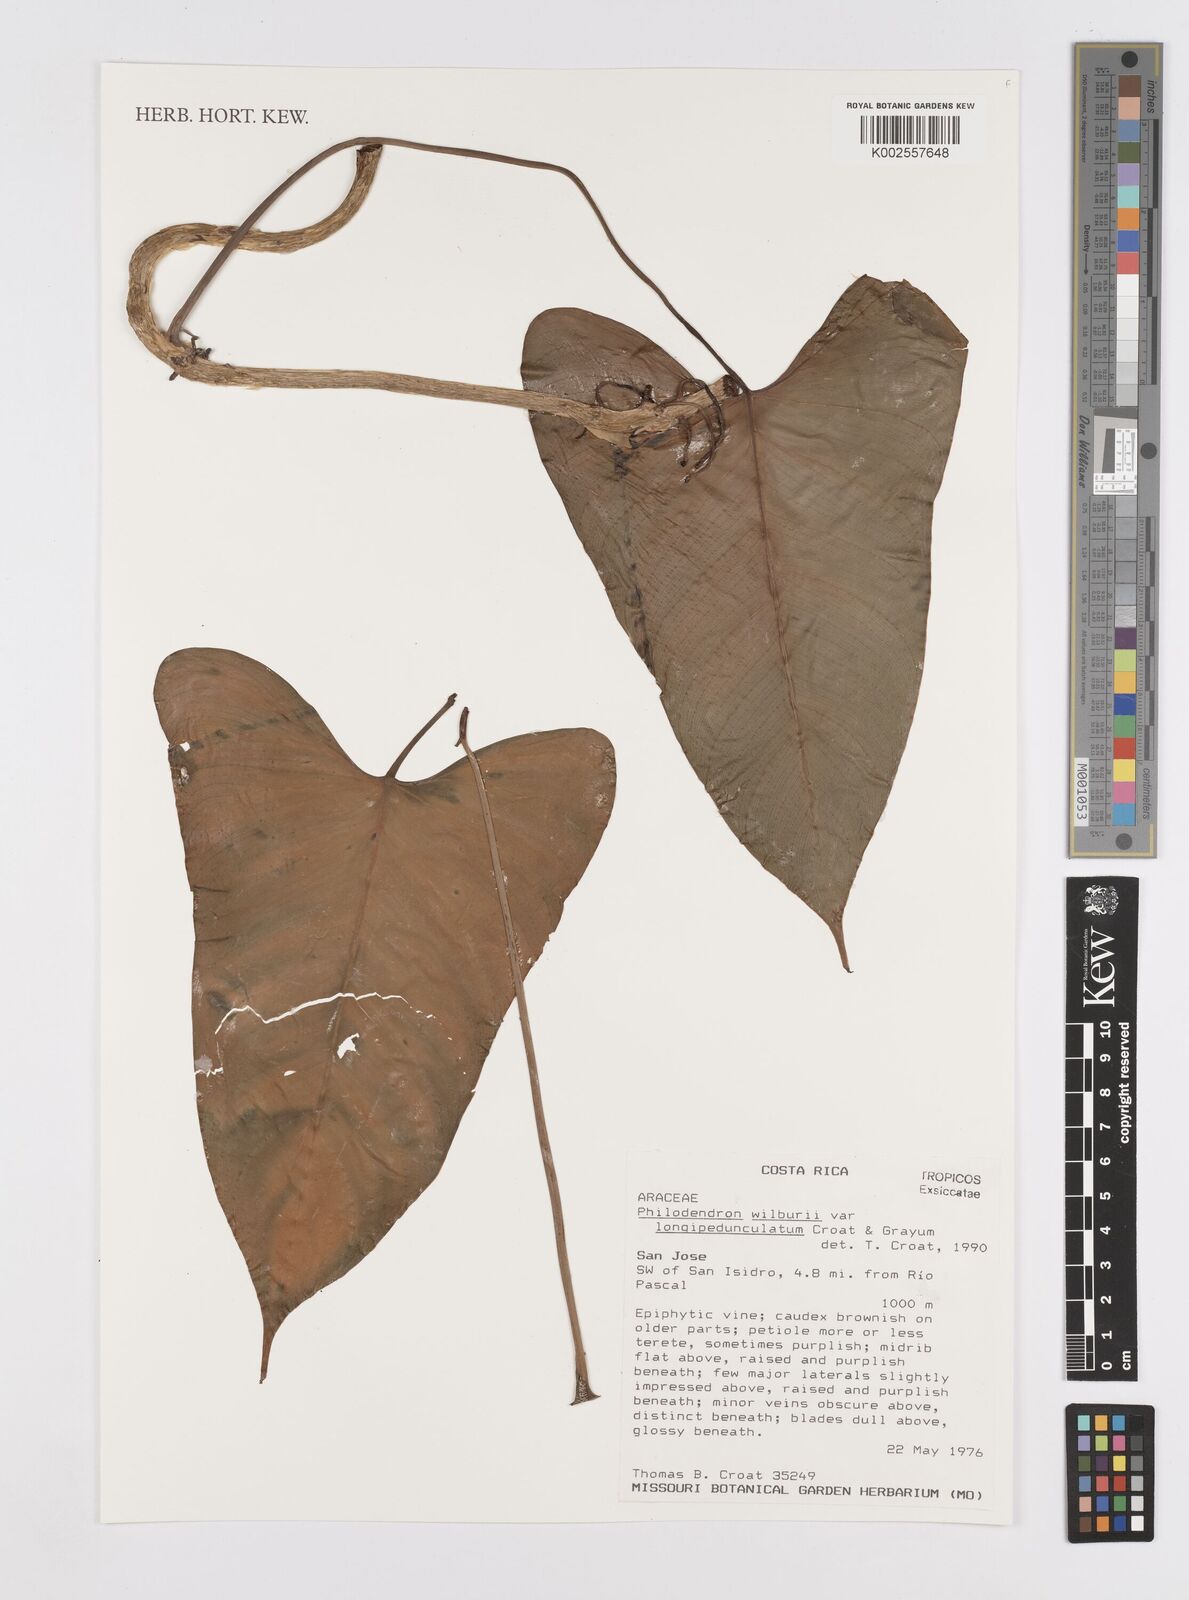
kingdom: Plantae
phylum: Tracheophyta
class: Liliopsida
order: Alismatales
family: Araceae
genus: Philodendron
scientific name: Philodendron wilburii
